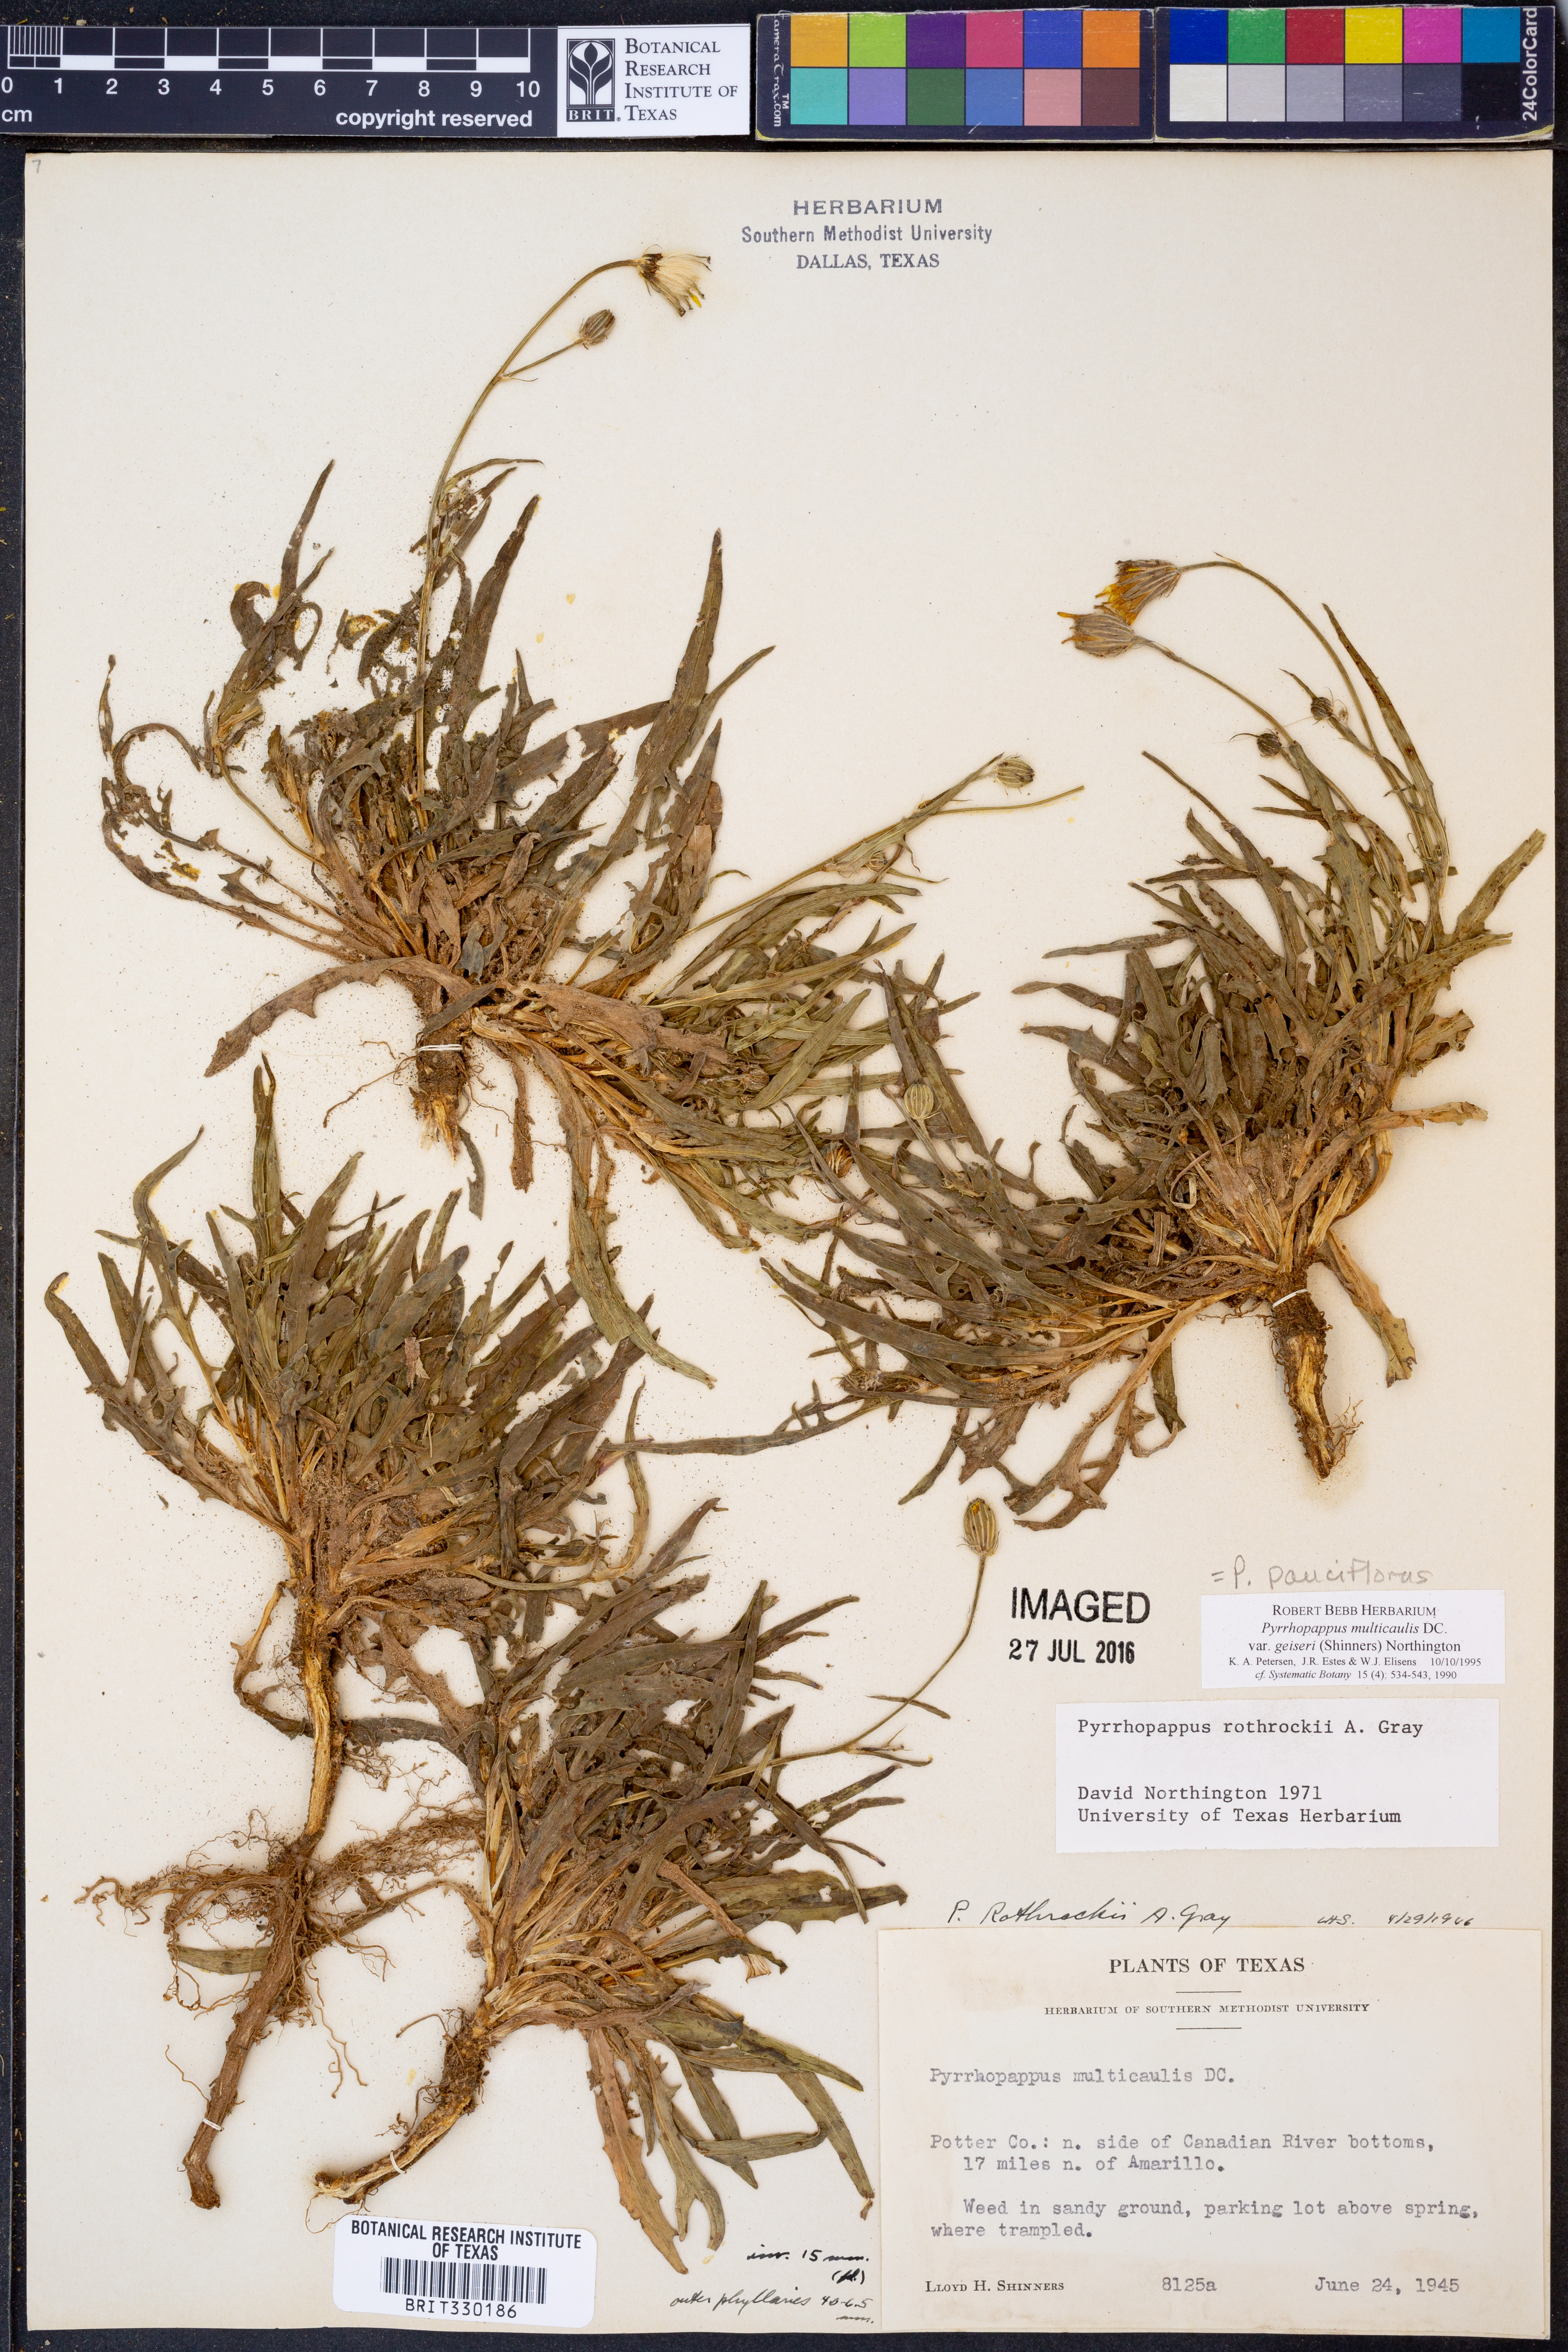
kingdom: Plantae
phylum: Tracheophyta
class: Magnoliopsida
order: Asterales
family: Asteraceae
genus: Pyrrhopappus
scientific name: Pyrrhopappus pauciflorus
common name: Texas false dandelion
